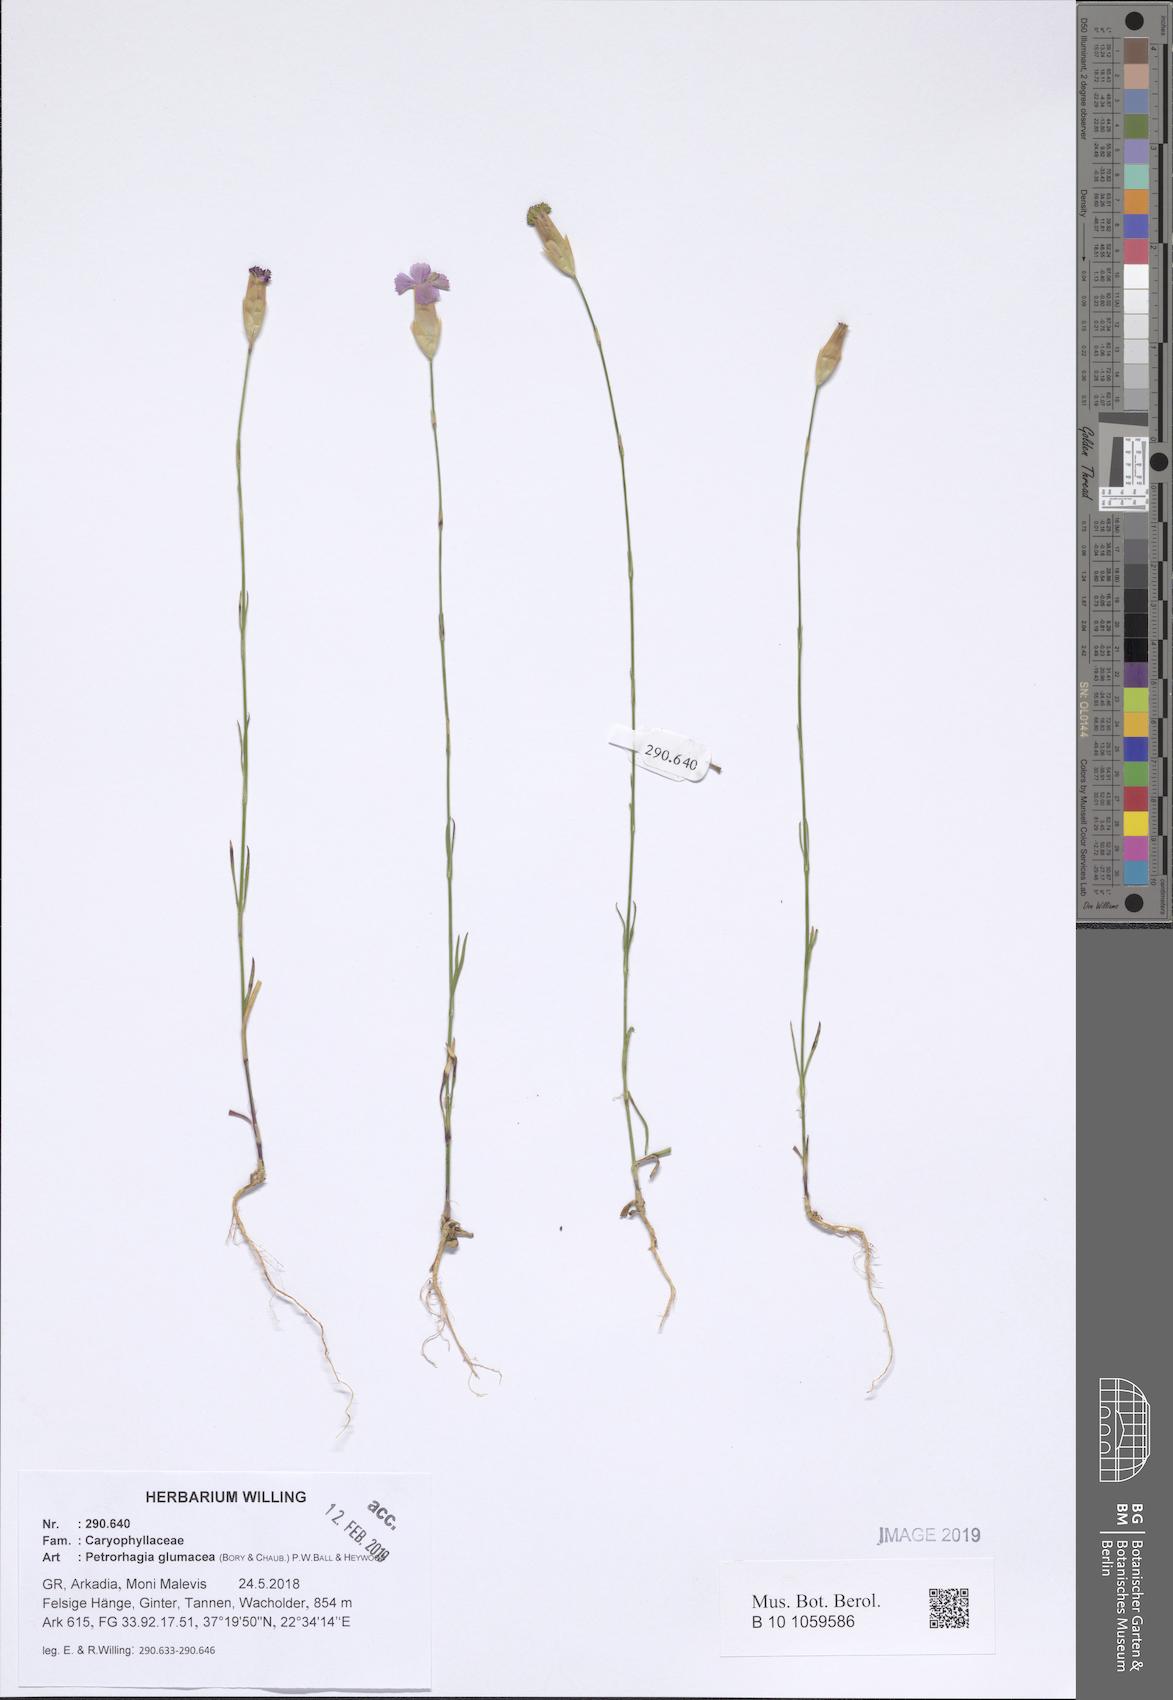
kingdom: Plantae
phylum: Tracheophyta
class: Magnoliopsida
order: Caryophyllales
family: Caryophyllaceae
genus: Petrorhagia
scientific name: Petrorhagia glumacea
